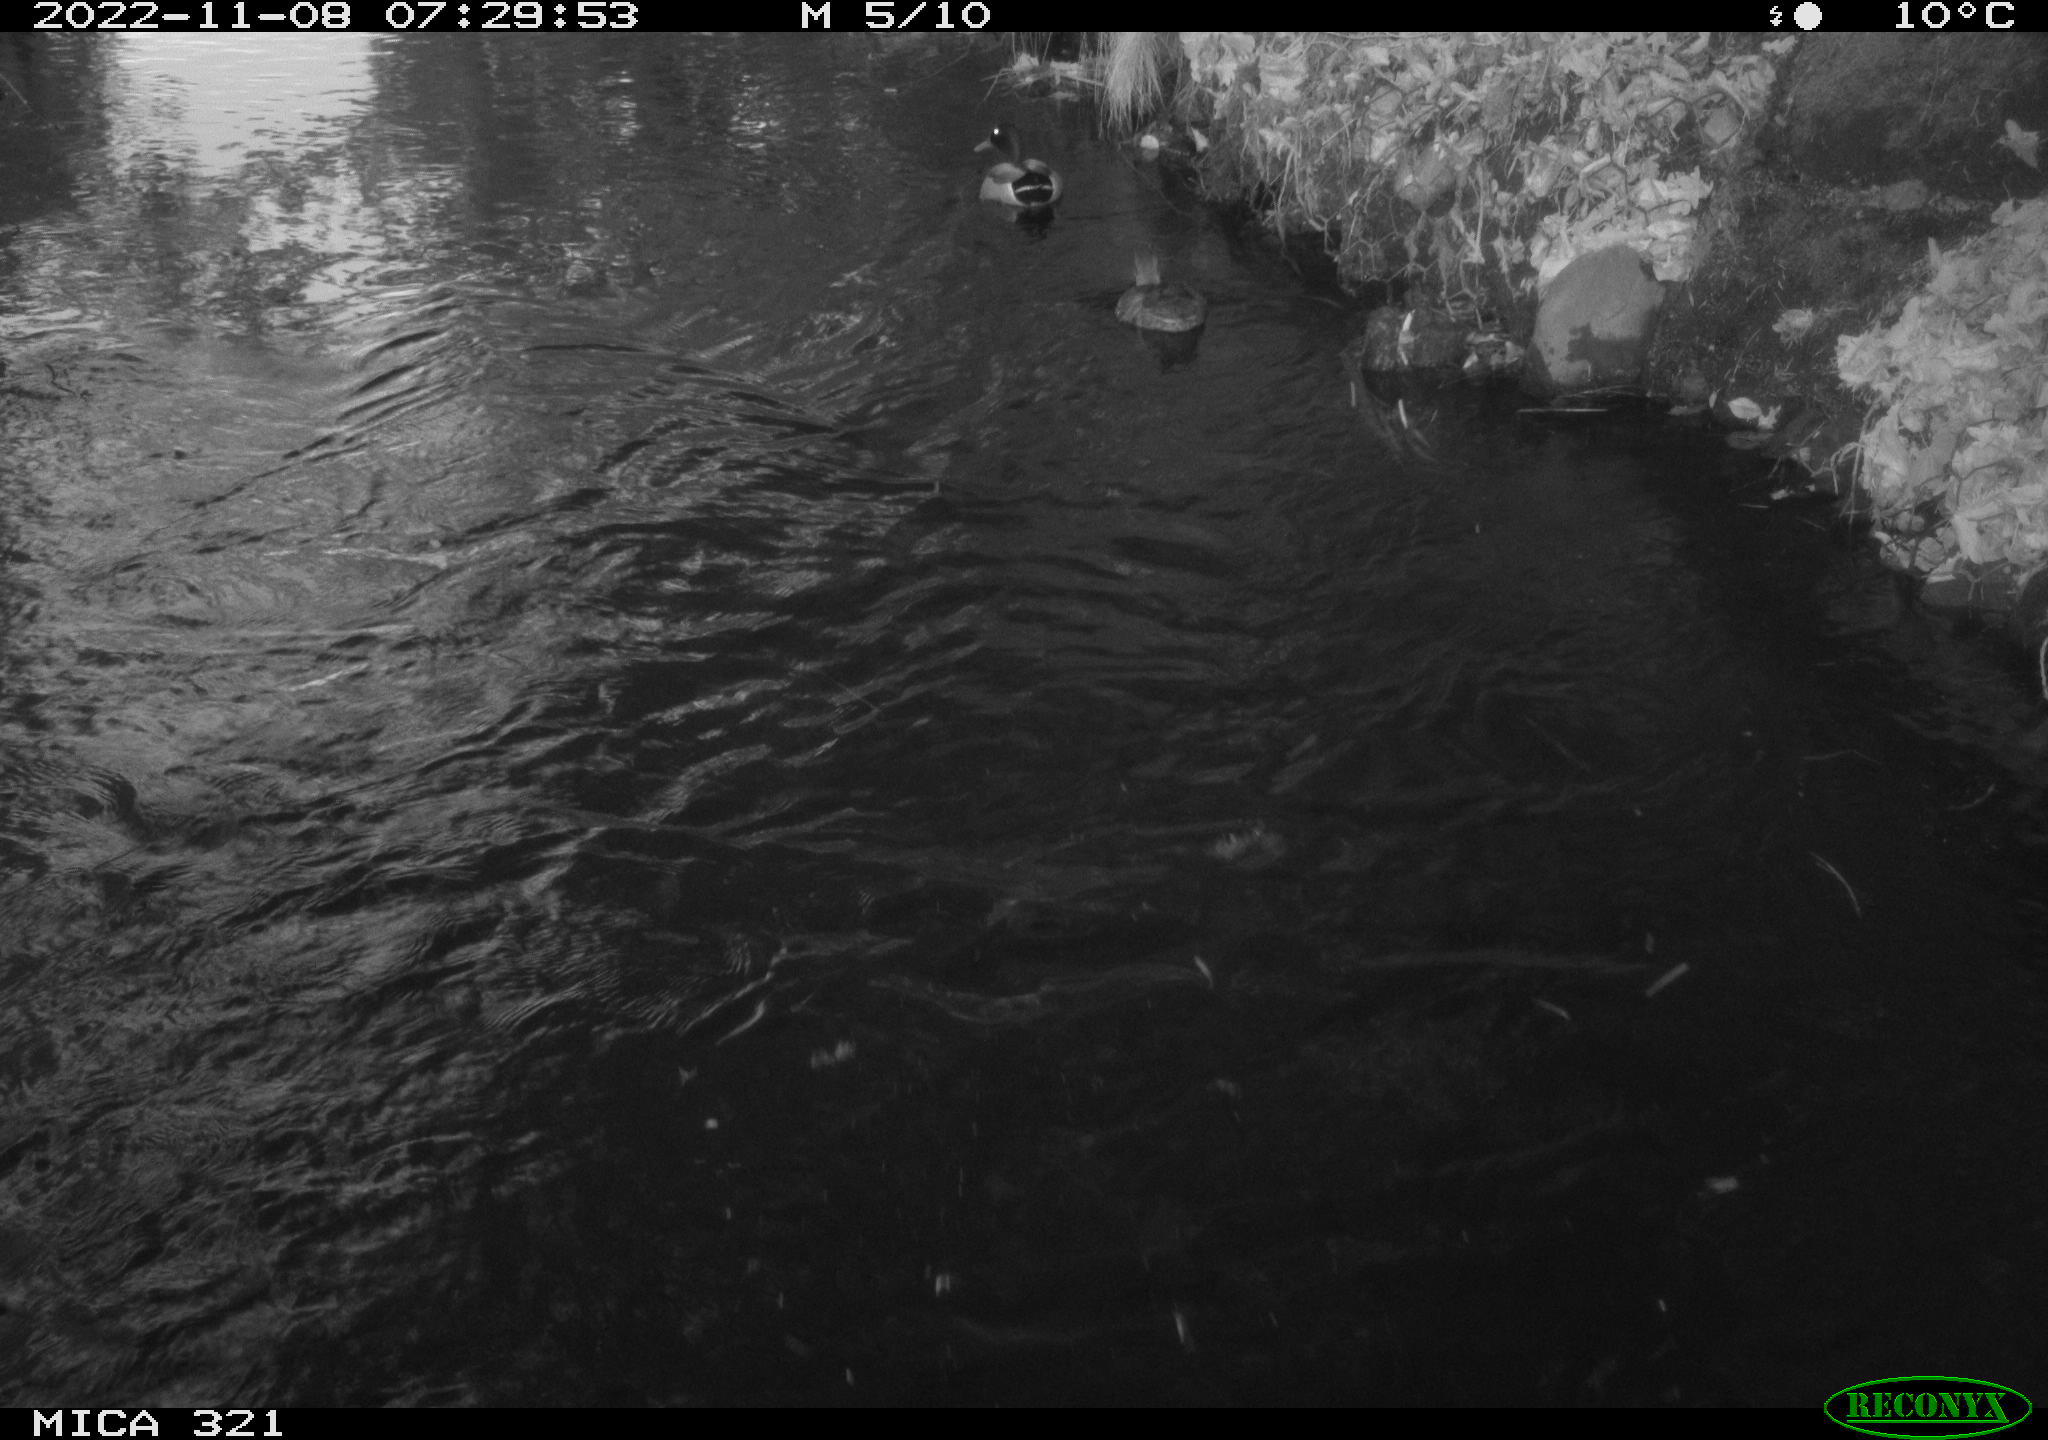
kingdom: Animalia
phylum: Chordata
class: Aves
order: Anseriformes
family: Anatidae
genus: Anas
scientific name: Anas
